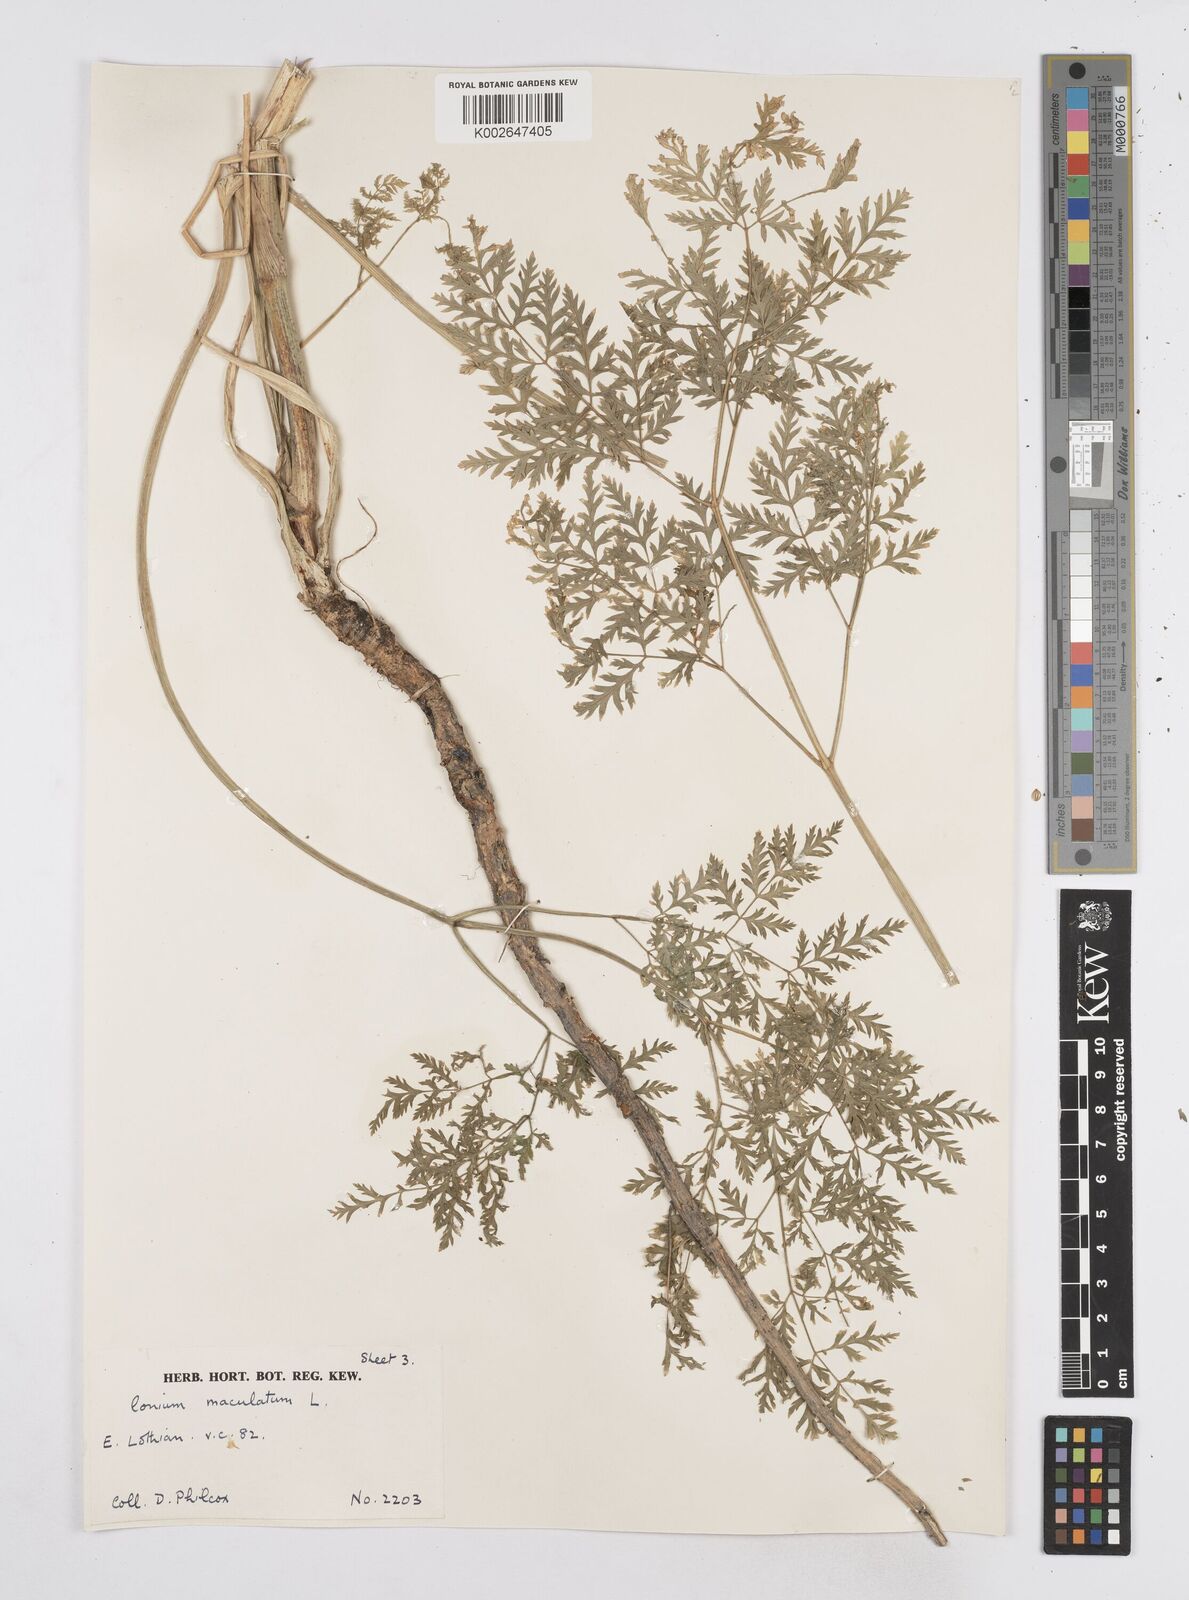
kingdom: Plantae
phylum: Tracheophyta
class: Magnoliopsida
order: Apiales
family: Apiaceae
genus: Conium
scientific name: Conium maculatum
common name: Hemlock
